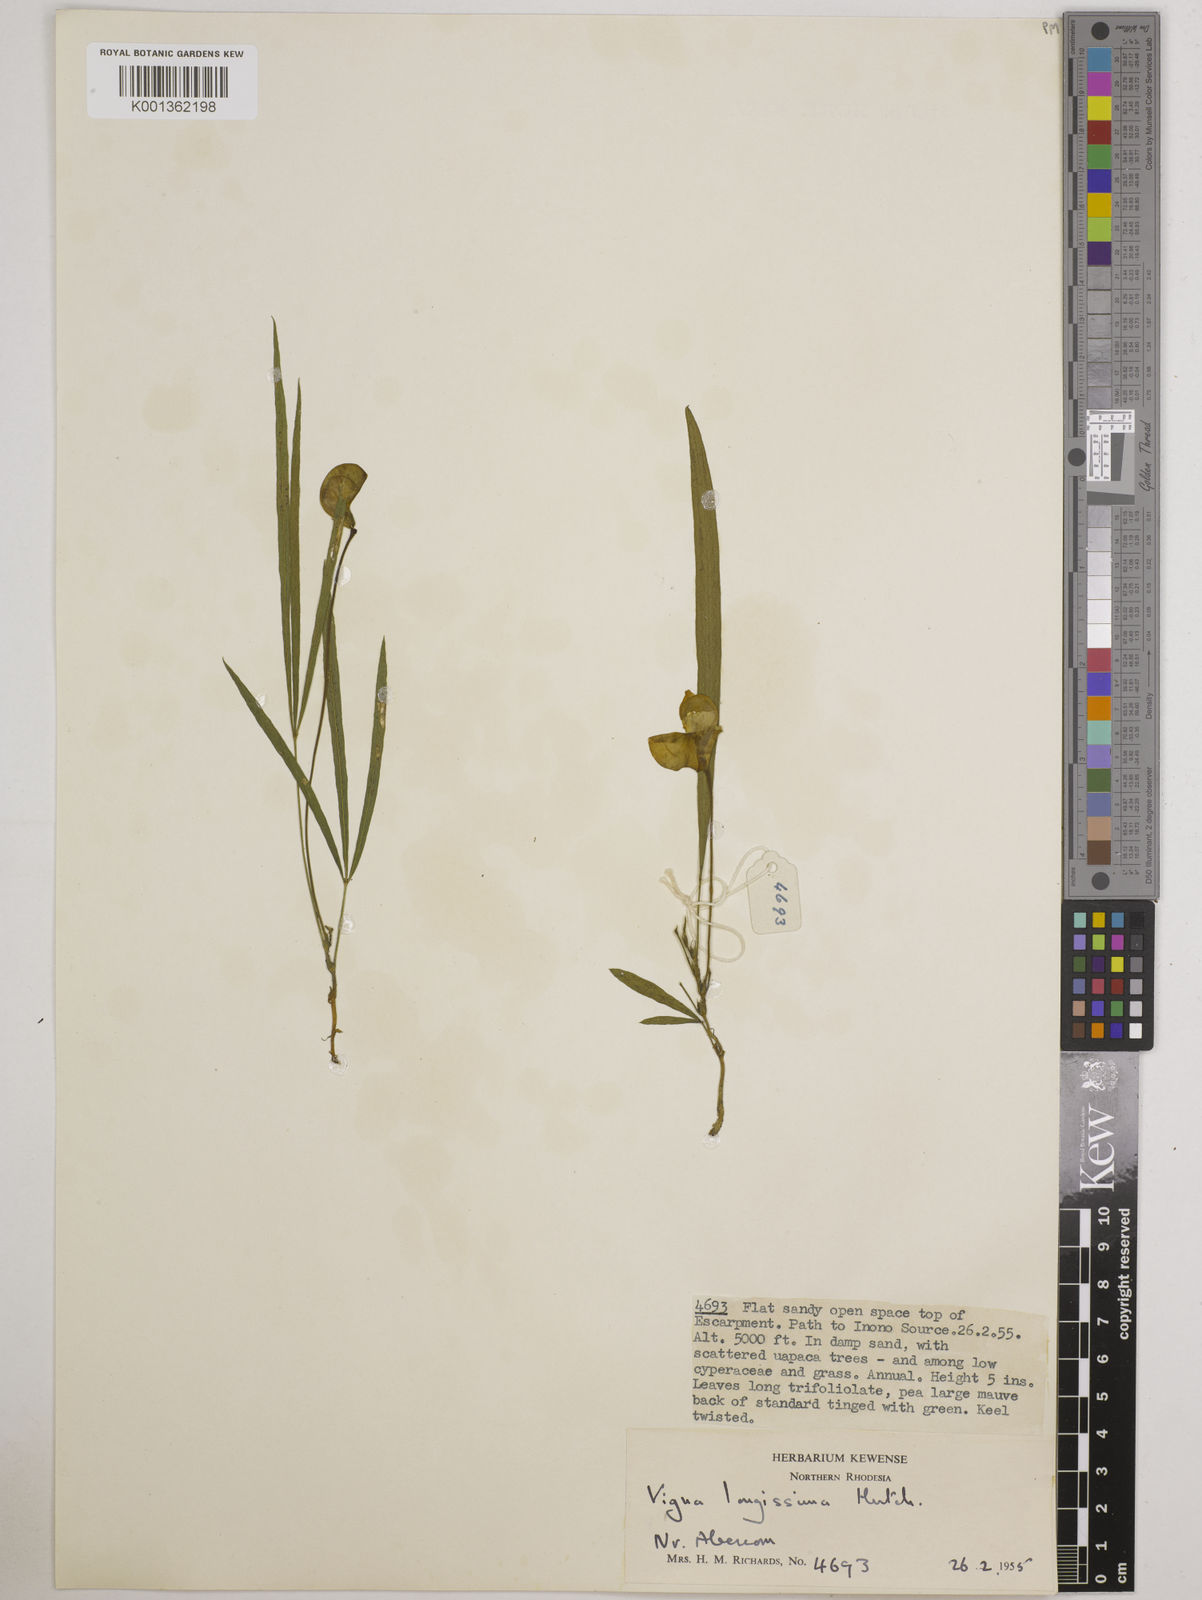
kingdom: Plantae
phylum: Tracheophyta
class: Magnoliopsida
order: Fabales
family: Fabaceae
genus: Vigna
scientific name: Vigna longissima
